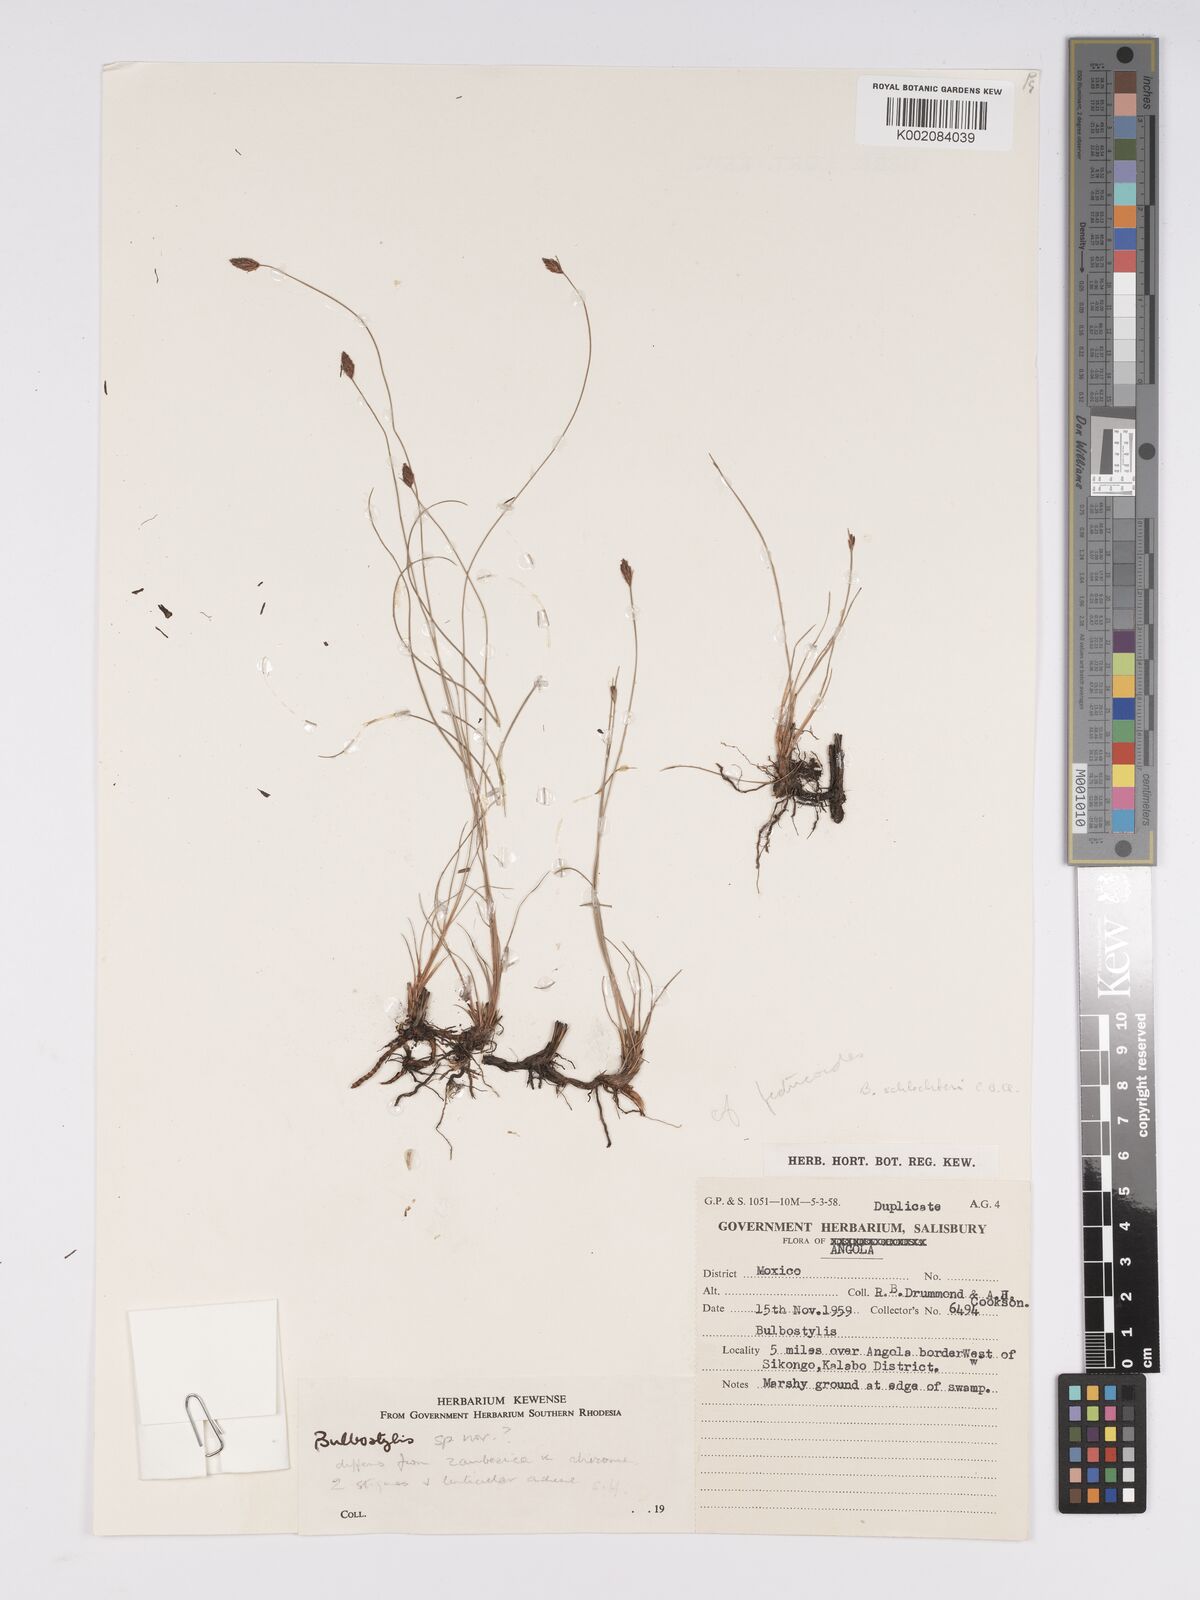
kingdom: Plantae
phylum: Tracheophyta
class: Liliopsida
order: Poales
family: Cyperaceae
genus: Bulbostylis
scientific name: Bulbostylis schlechteri
